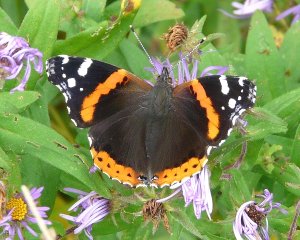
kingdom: Animalia
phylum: Arthropoda
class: Insecta
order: Lepidoptera
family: Nymphalidae
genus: Vanessa
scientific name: Vanessa atalanta
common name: Red Admiral
